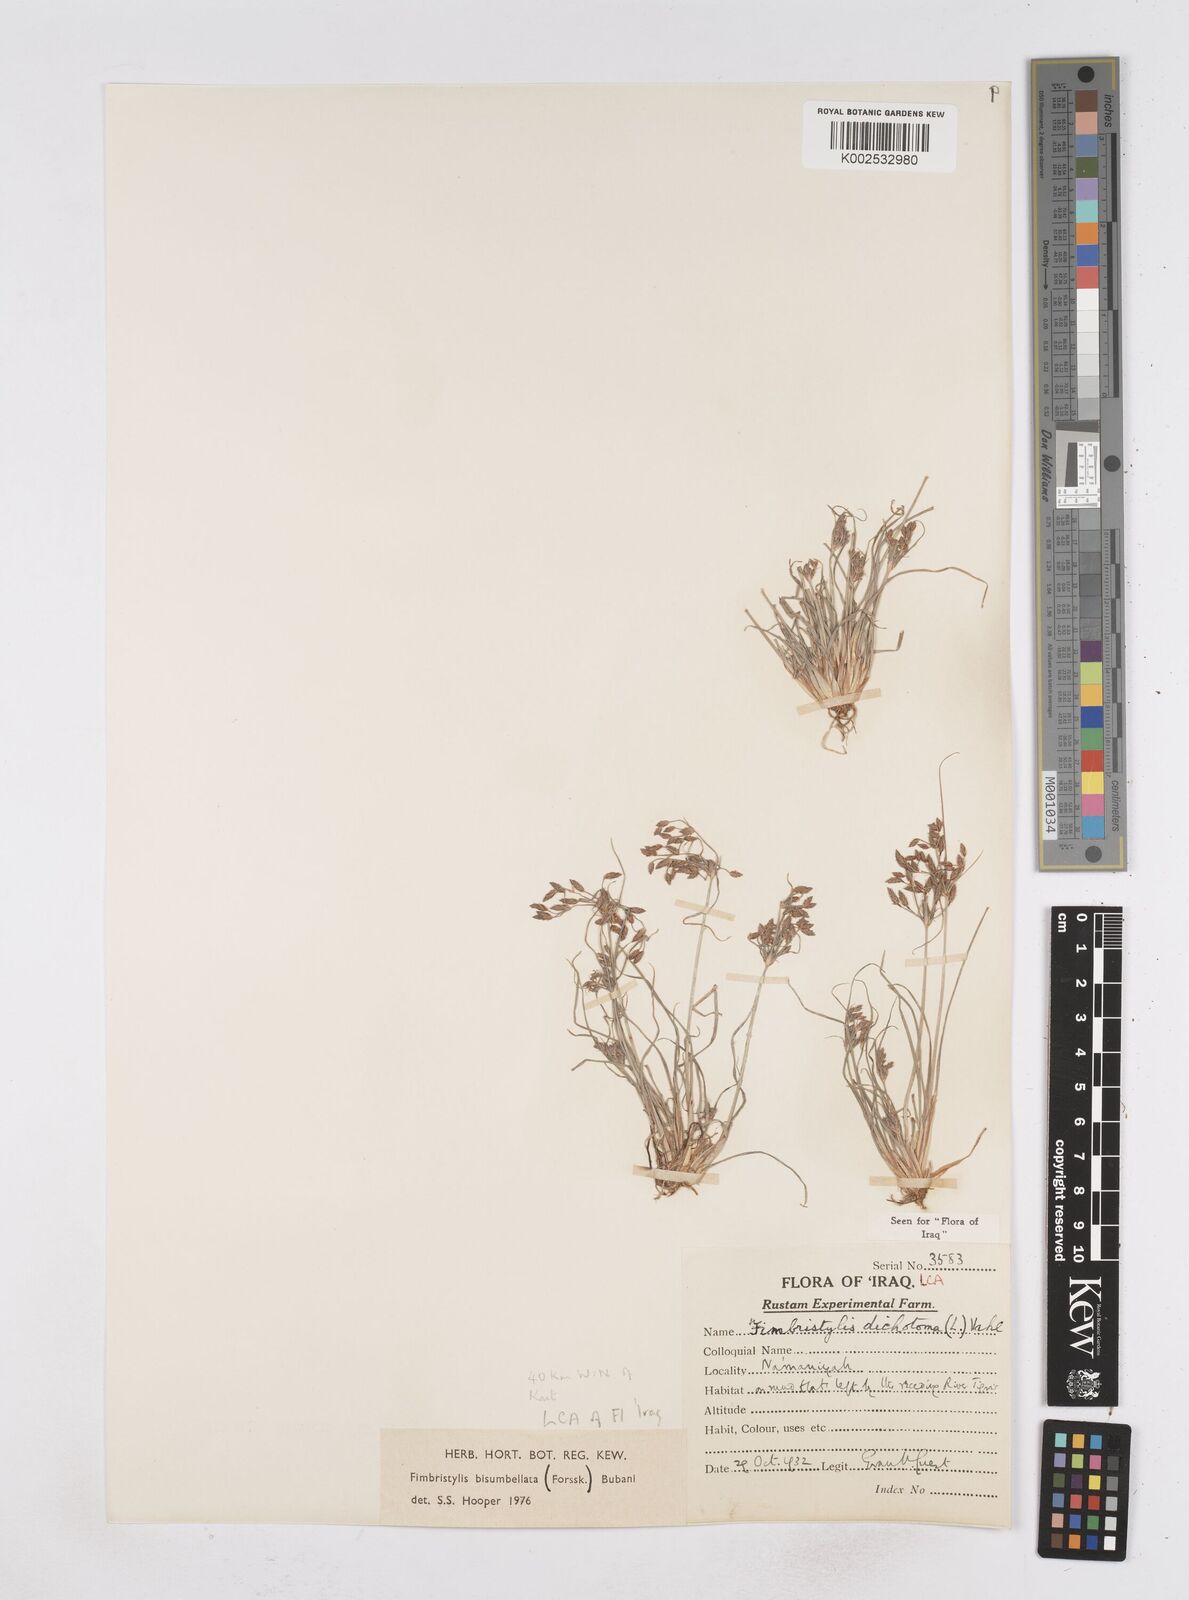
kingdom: Plantae
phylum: Tracheophyta
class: Liliopsida
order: Poales
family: Cyperaceae
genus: Fimbristylis
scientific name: Fimbristylis bisumbellata
